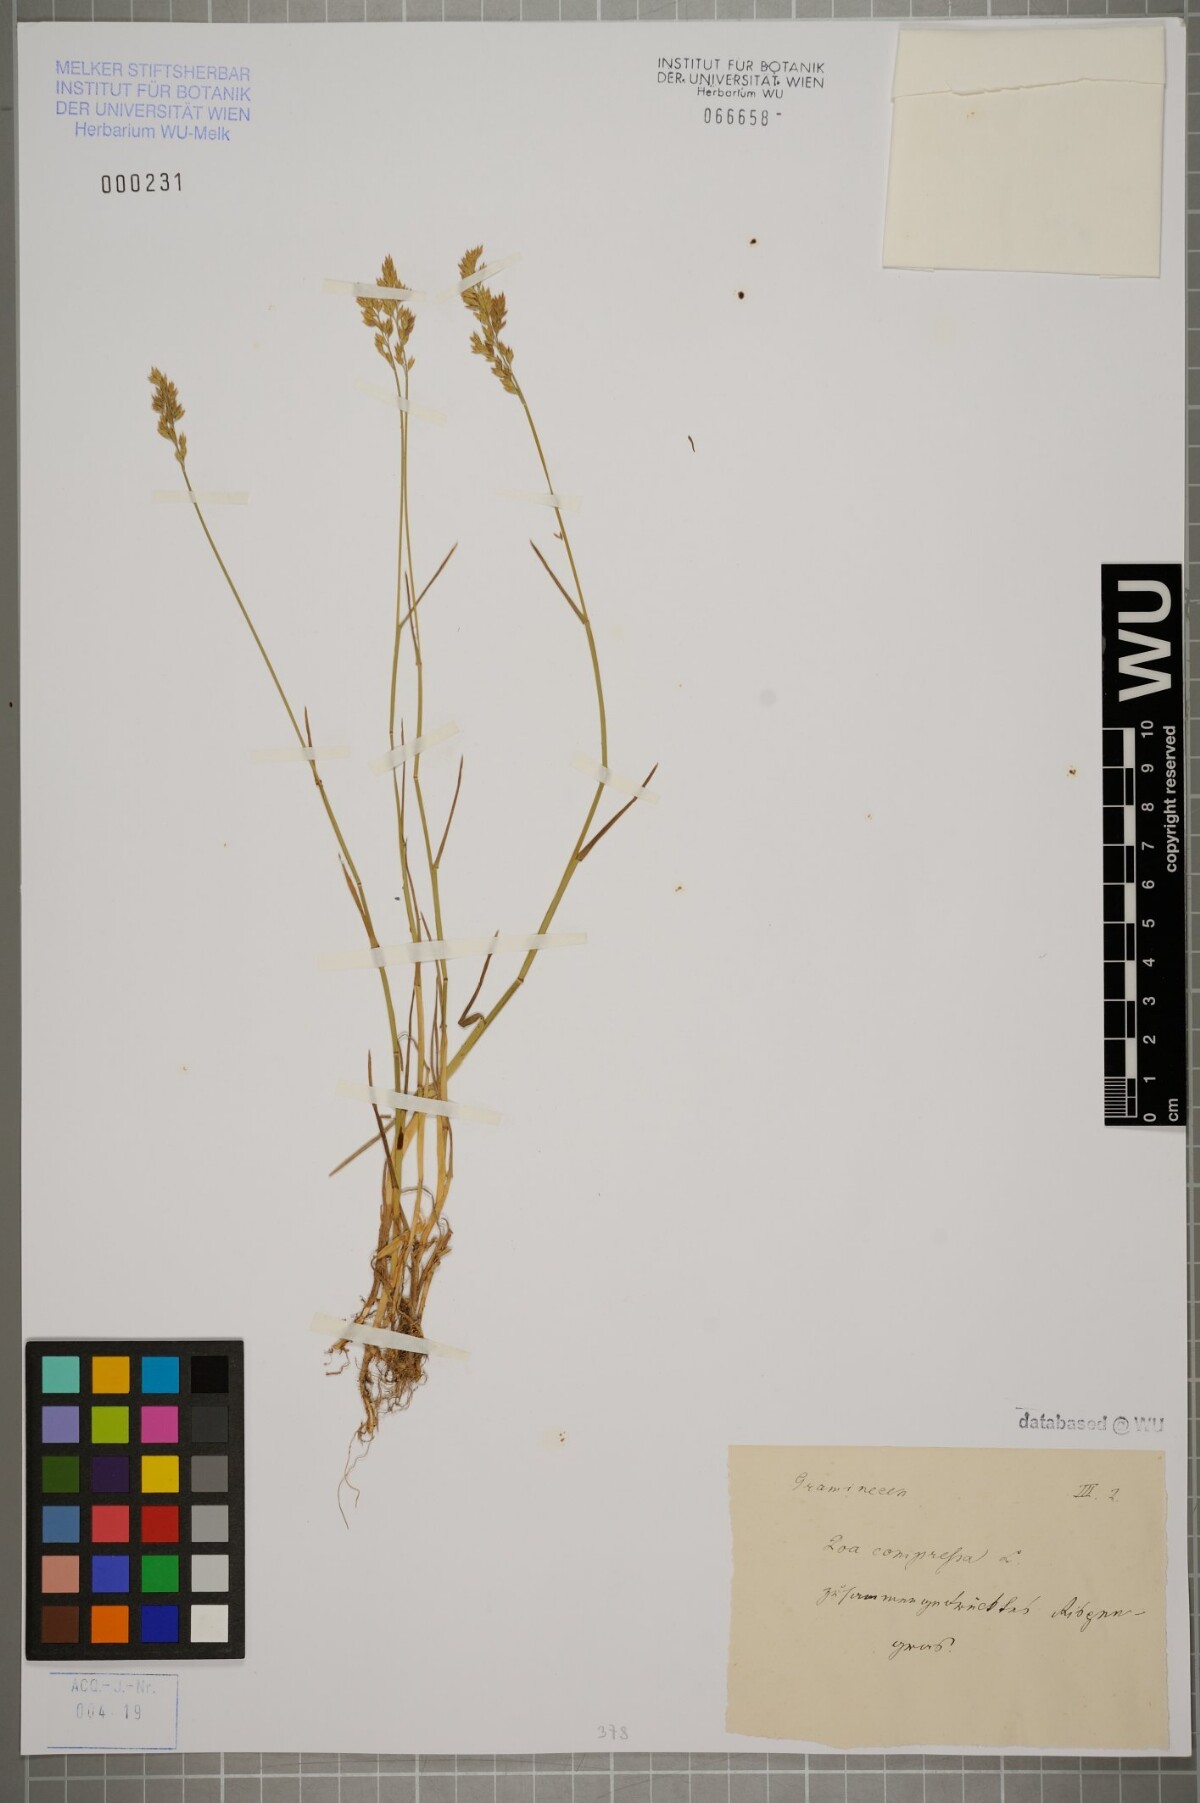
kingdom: Plantae
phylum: Tracheophyta
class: Liliopsida
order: Poales
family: Poaceae
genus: Poa
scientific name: Poa compressa
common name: Canada bluegrass
